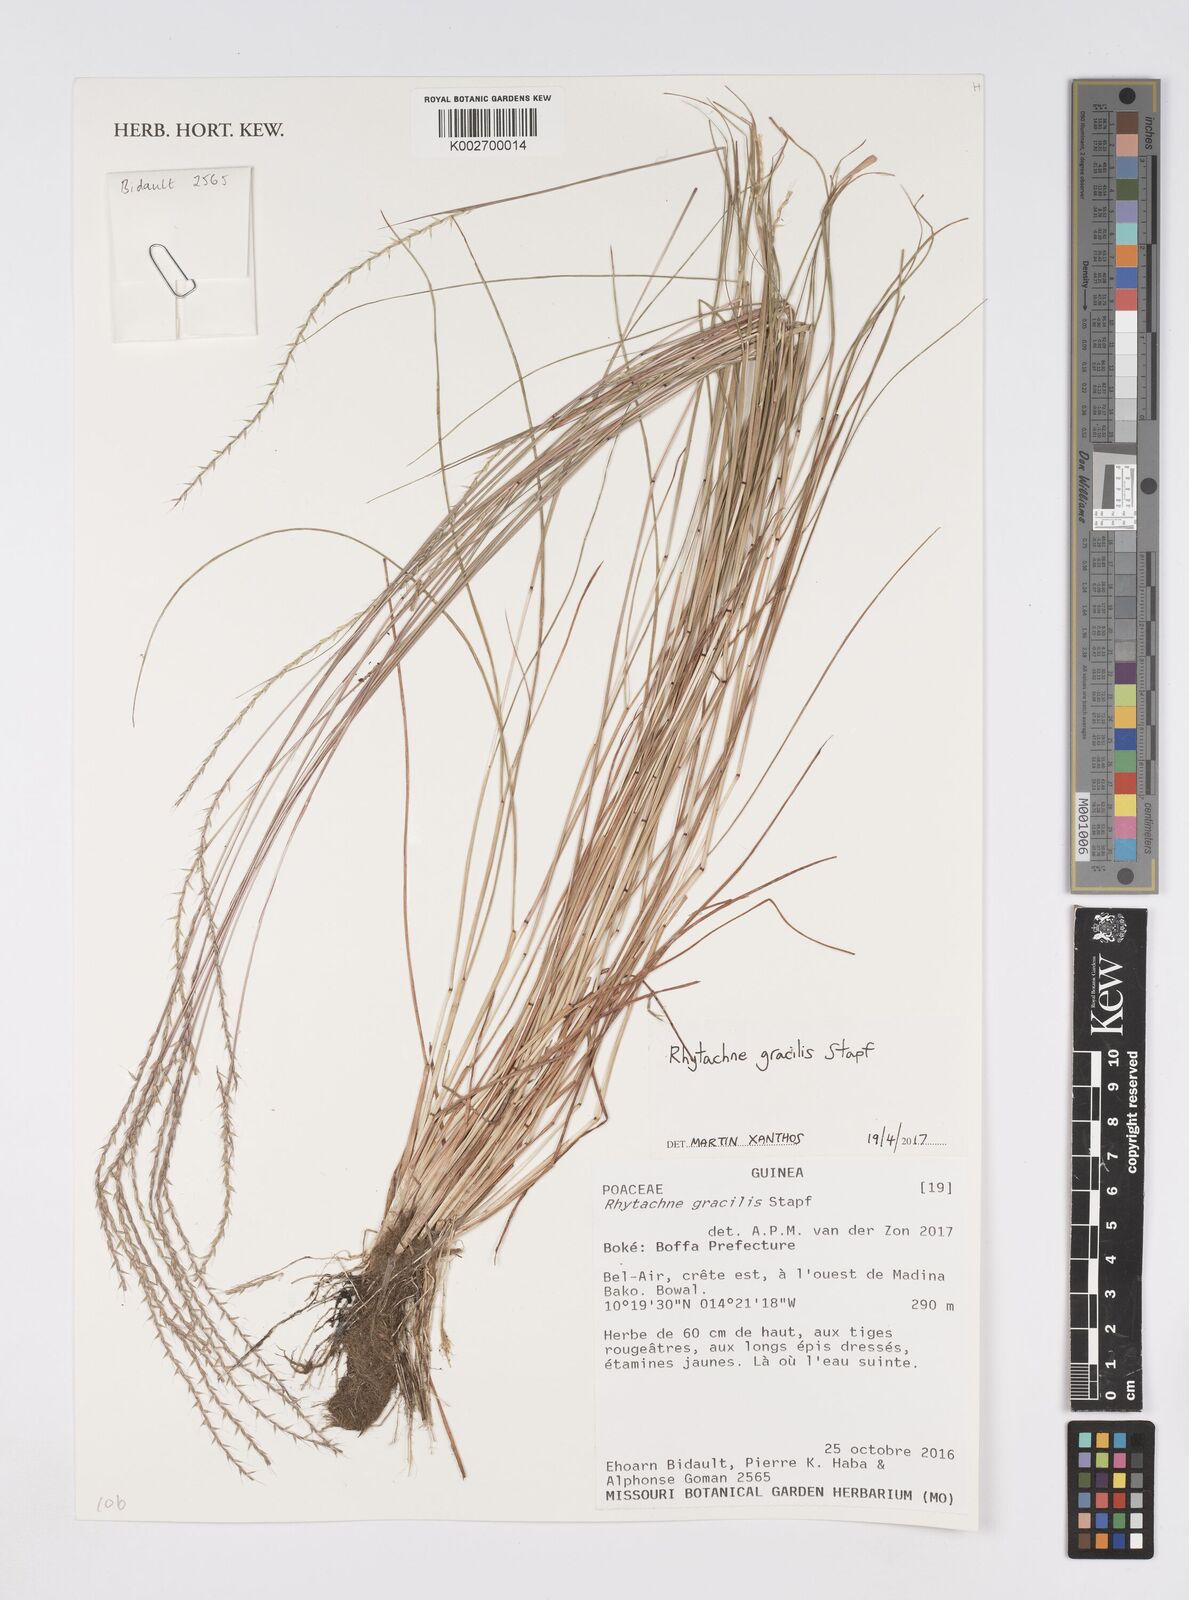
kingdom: Plantae
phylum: Tracheophyta
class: Liliopsida
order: Poales
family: Poaceae
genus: Rhytachne
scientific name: Rhytachne gracilis
